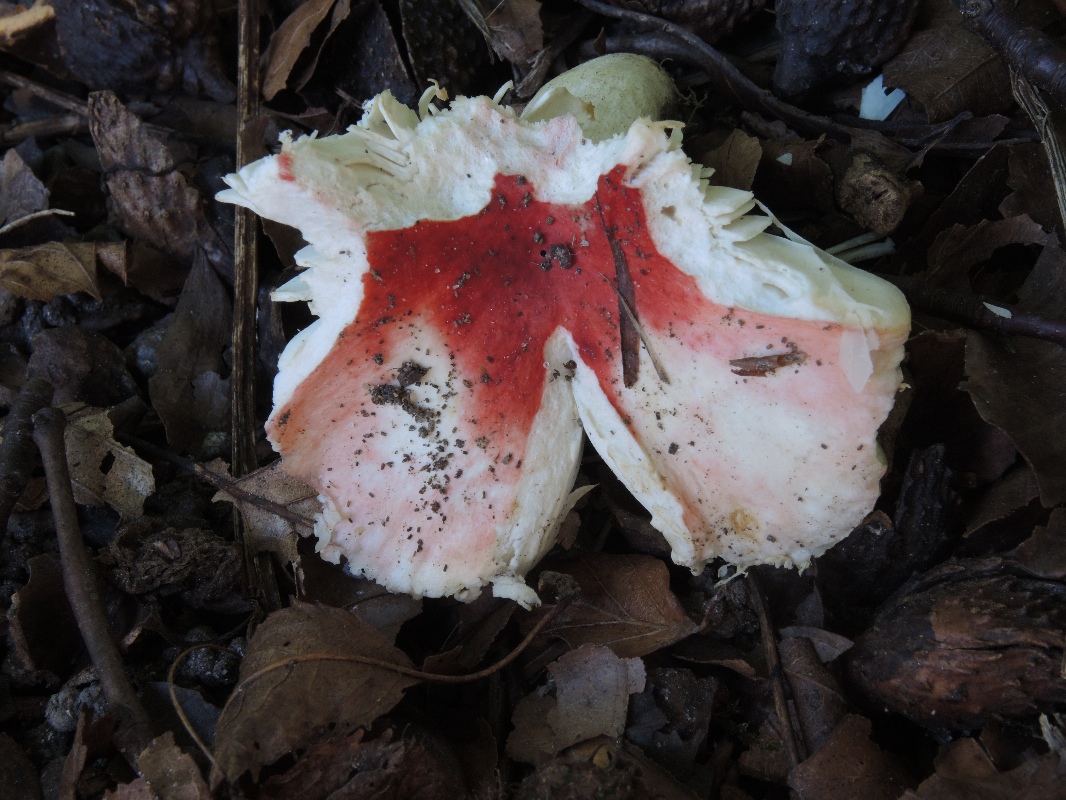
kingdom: Fungi
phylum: Basidiomycota
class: Agaricomycetes
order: Russulales
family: Russulaceae
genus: Russula
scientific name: Russula luteotacta
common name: gulplettet gift-skørhat
